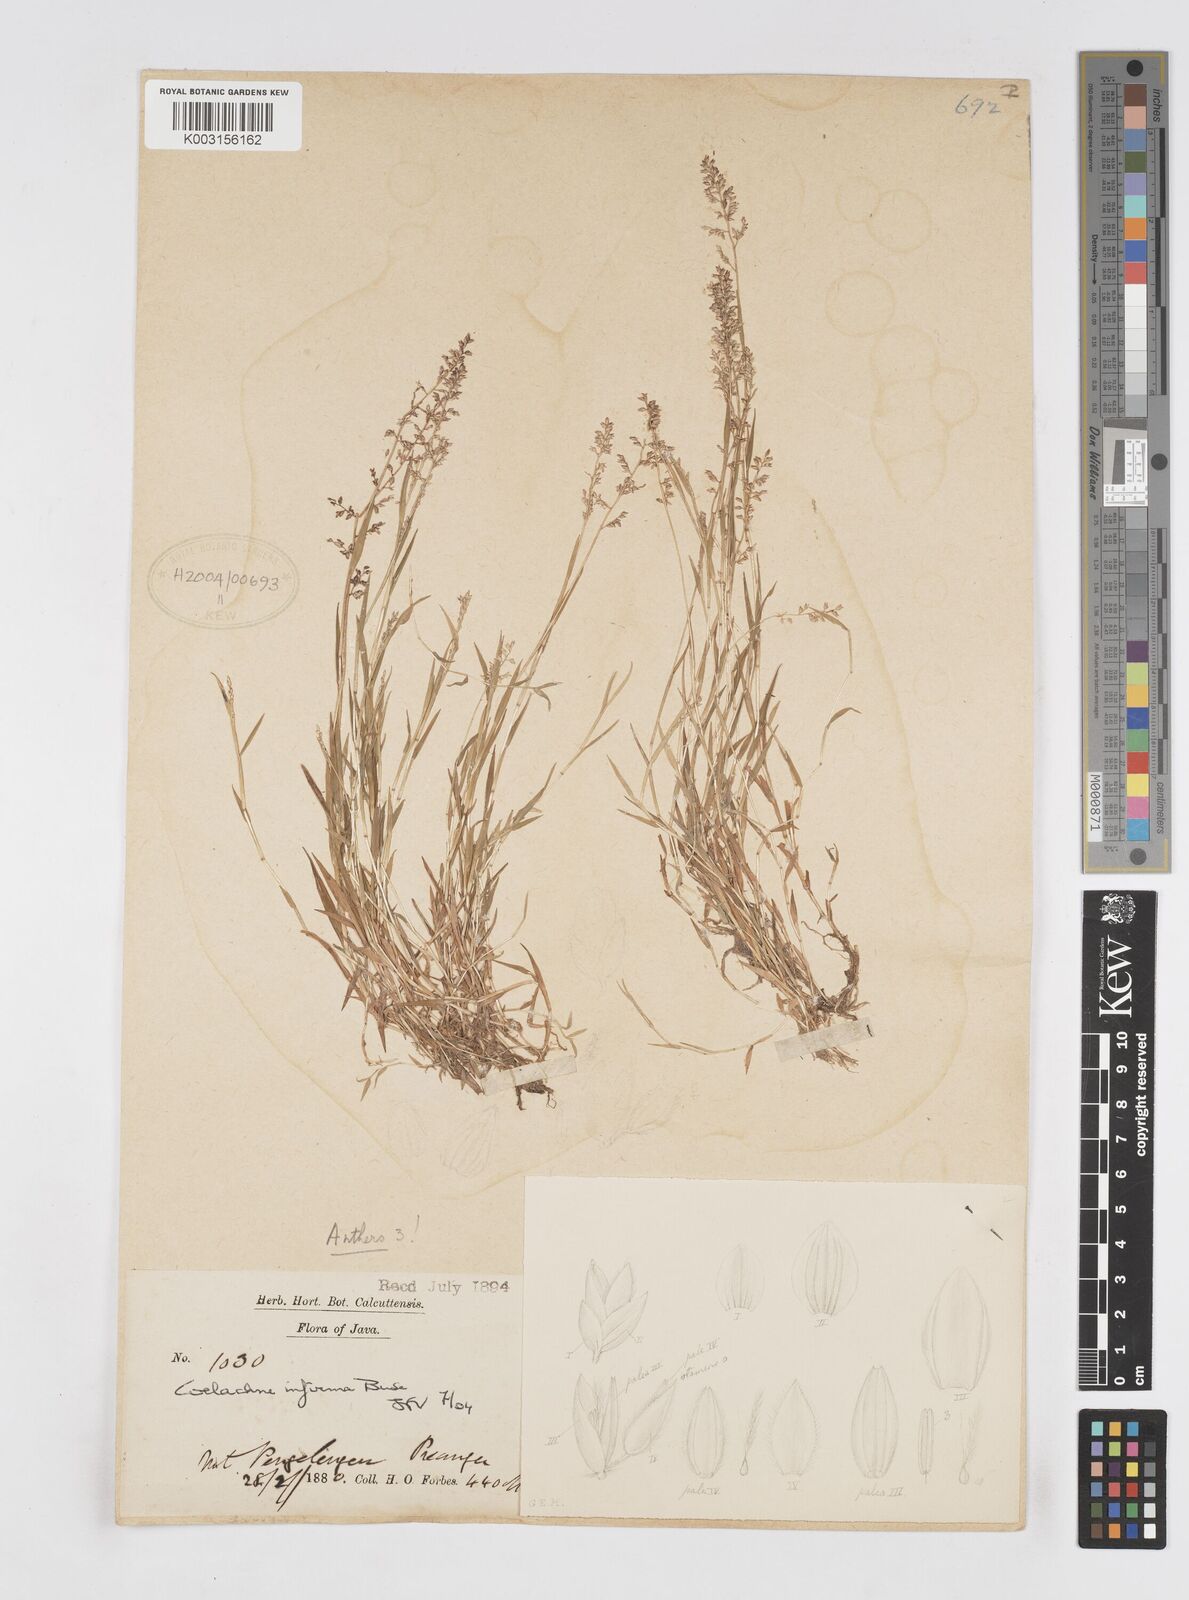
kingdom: Plantae
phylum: Tracheophyta
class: Liliopsida
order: Poales
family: Poaceae
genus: Coelachne
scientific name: Coelachne infirma
